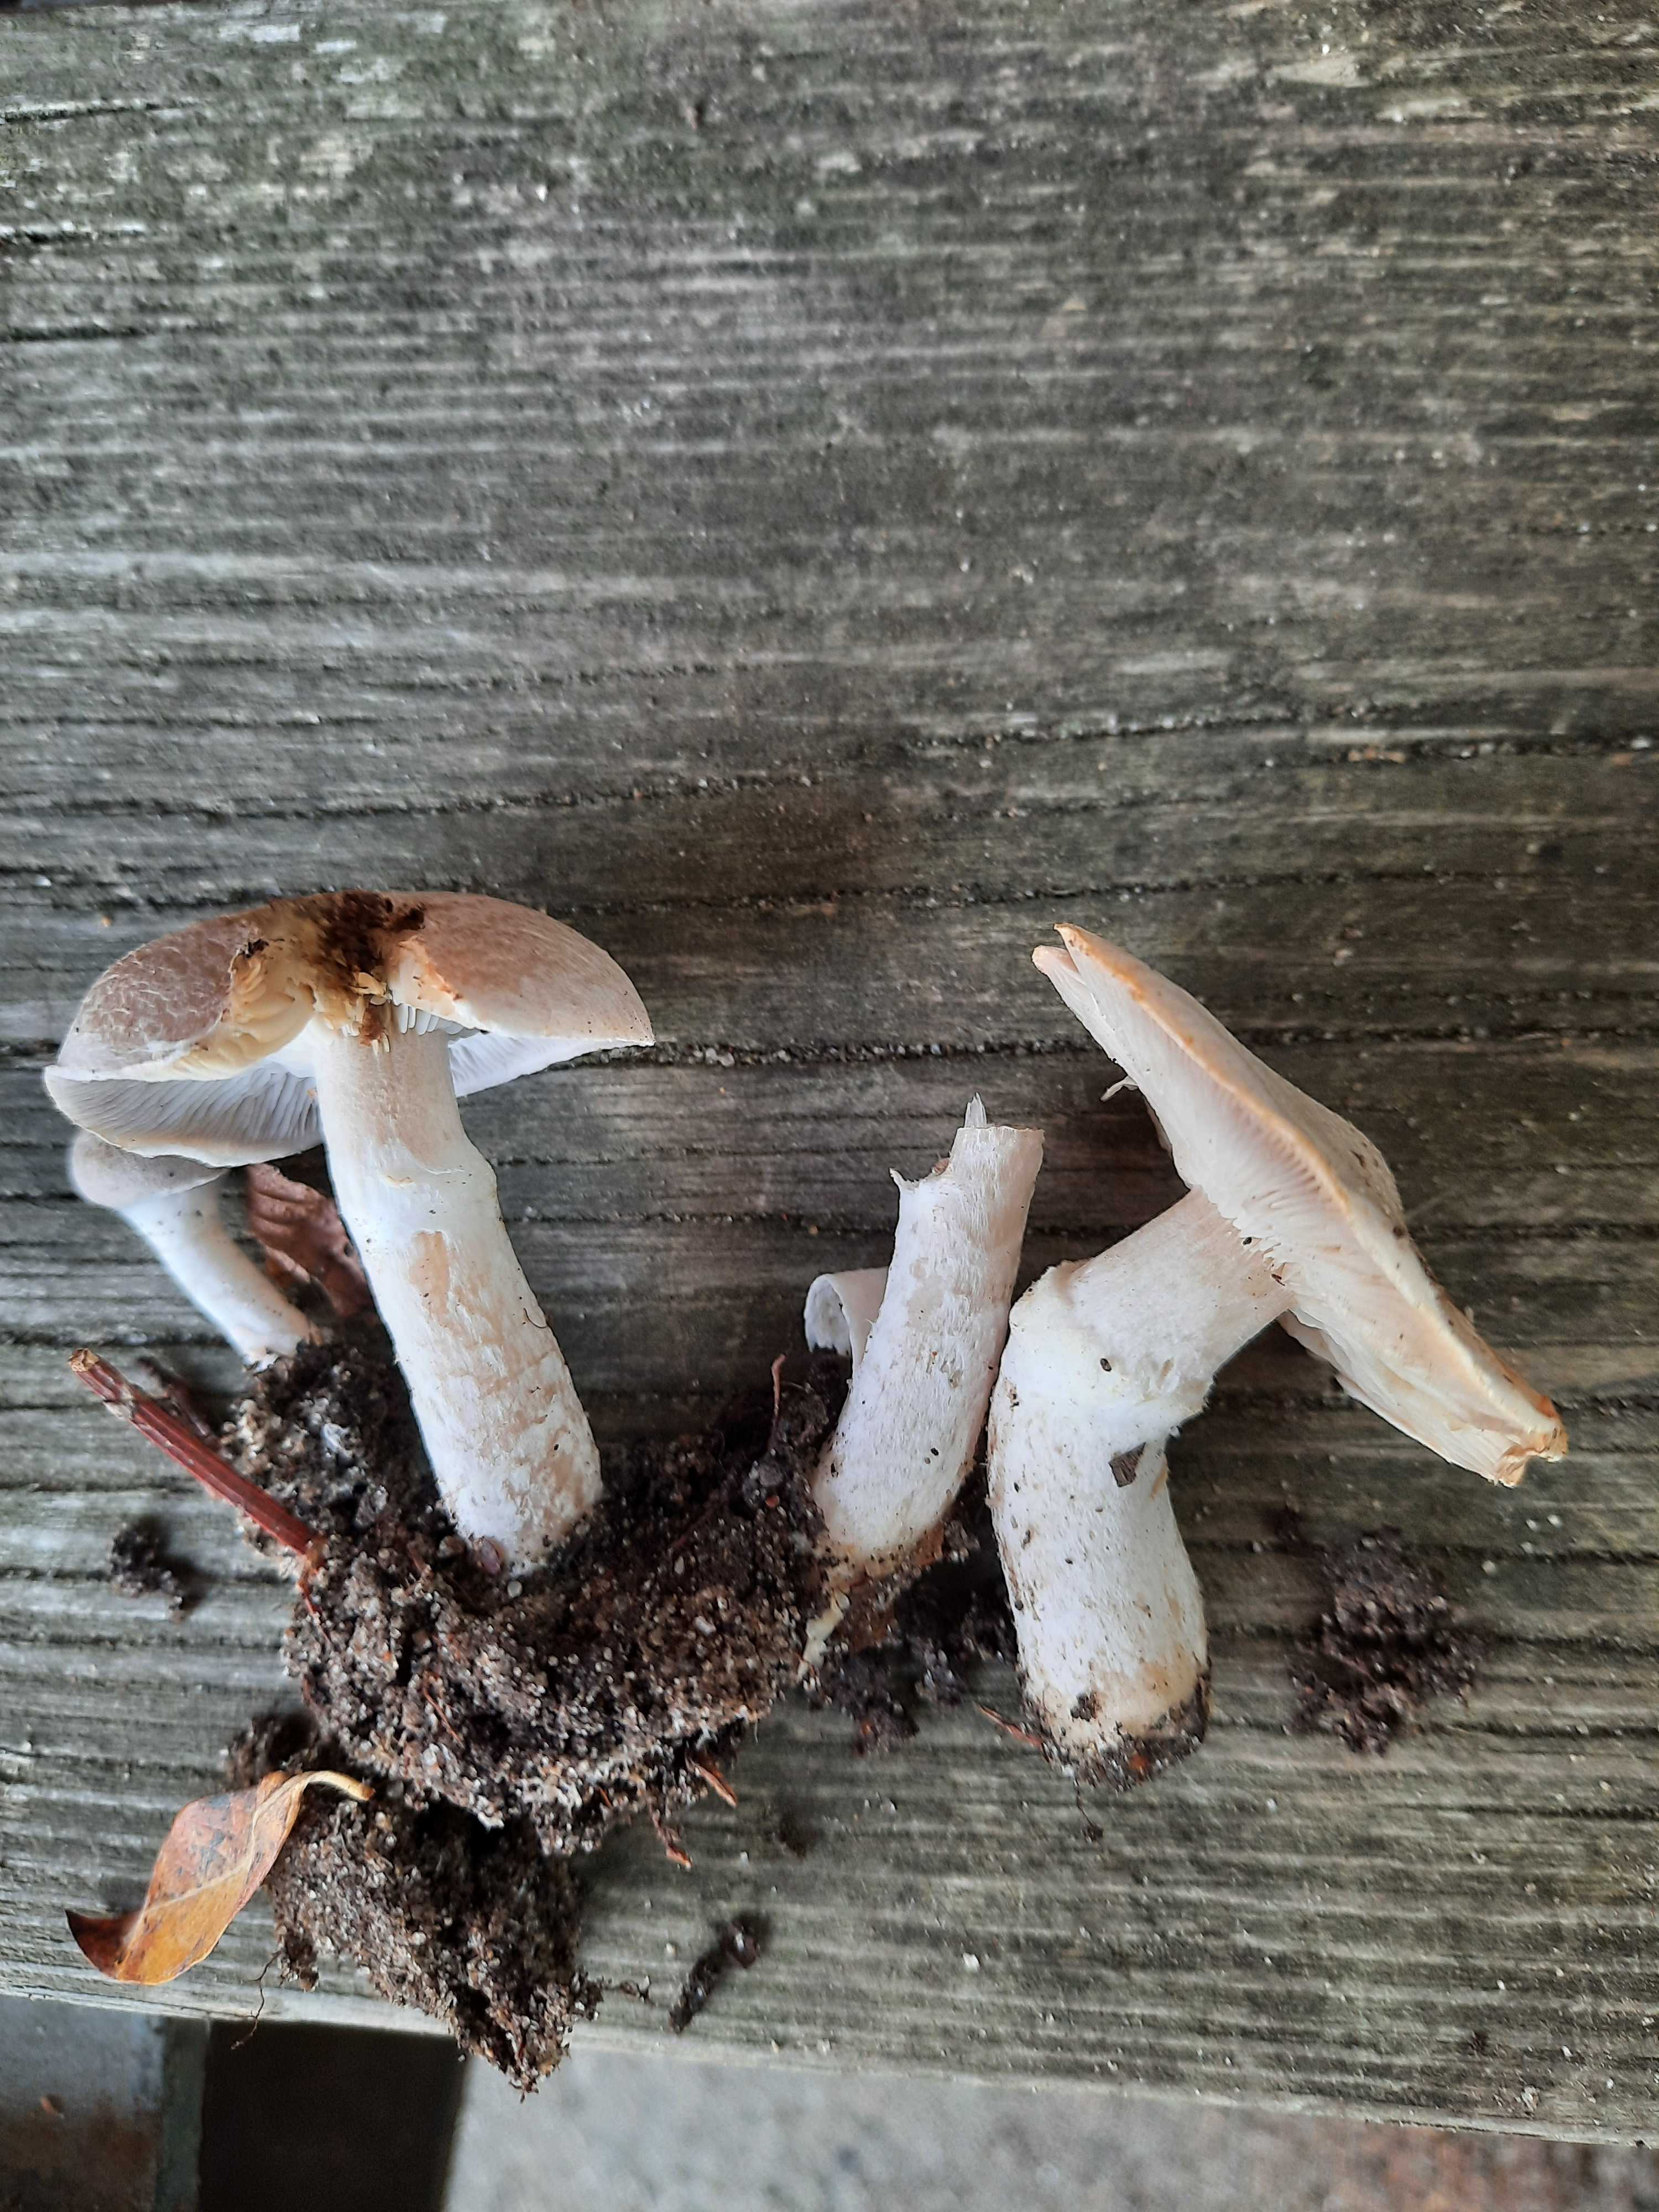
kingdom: Fungi
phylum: Basidiomycota
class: Agaricomycetes
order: Agaricales
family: Tricholomataceae
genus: Tricholoma
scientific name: Tricholoma cingulatum
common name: ring-ridderhat
